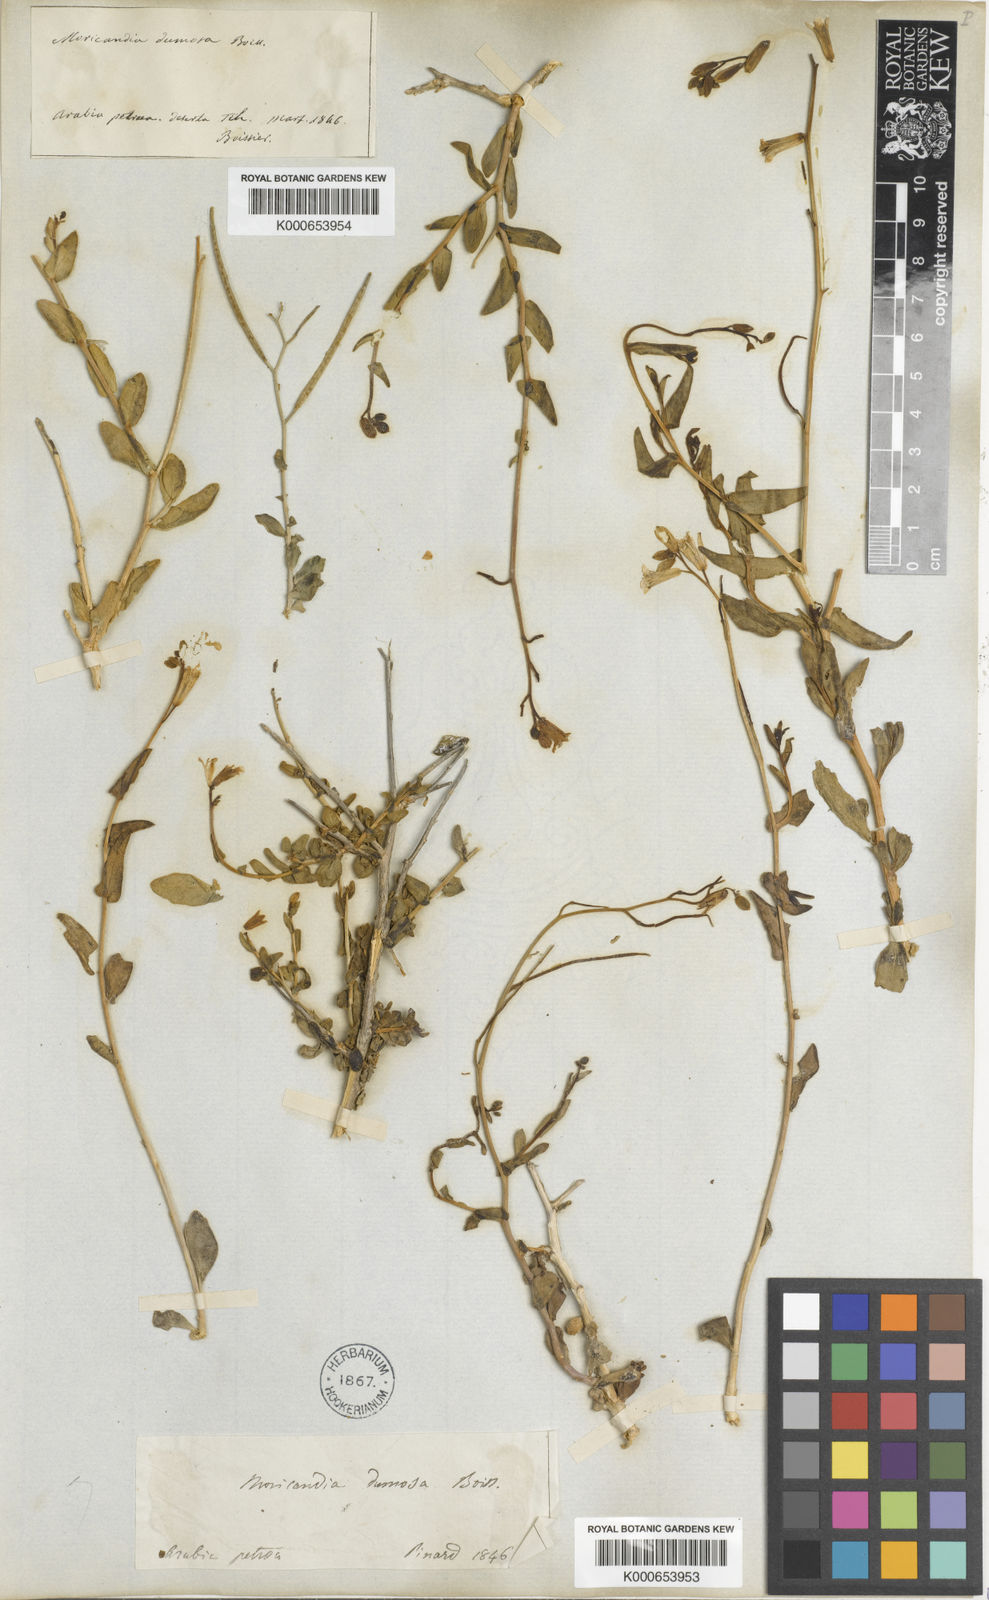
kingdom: Plantae
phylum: Tracheophyta
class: Magnoliopsida
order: Brassicales
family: Brassicaceae
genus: Moricandia
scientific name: Moricandia nitens
